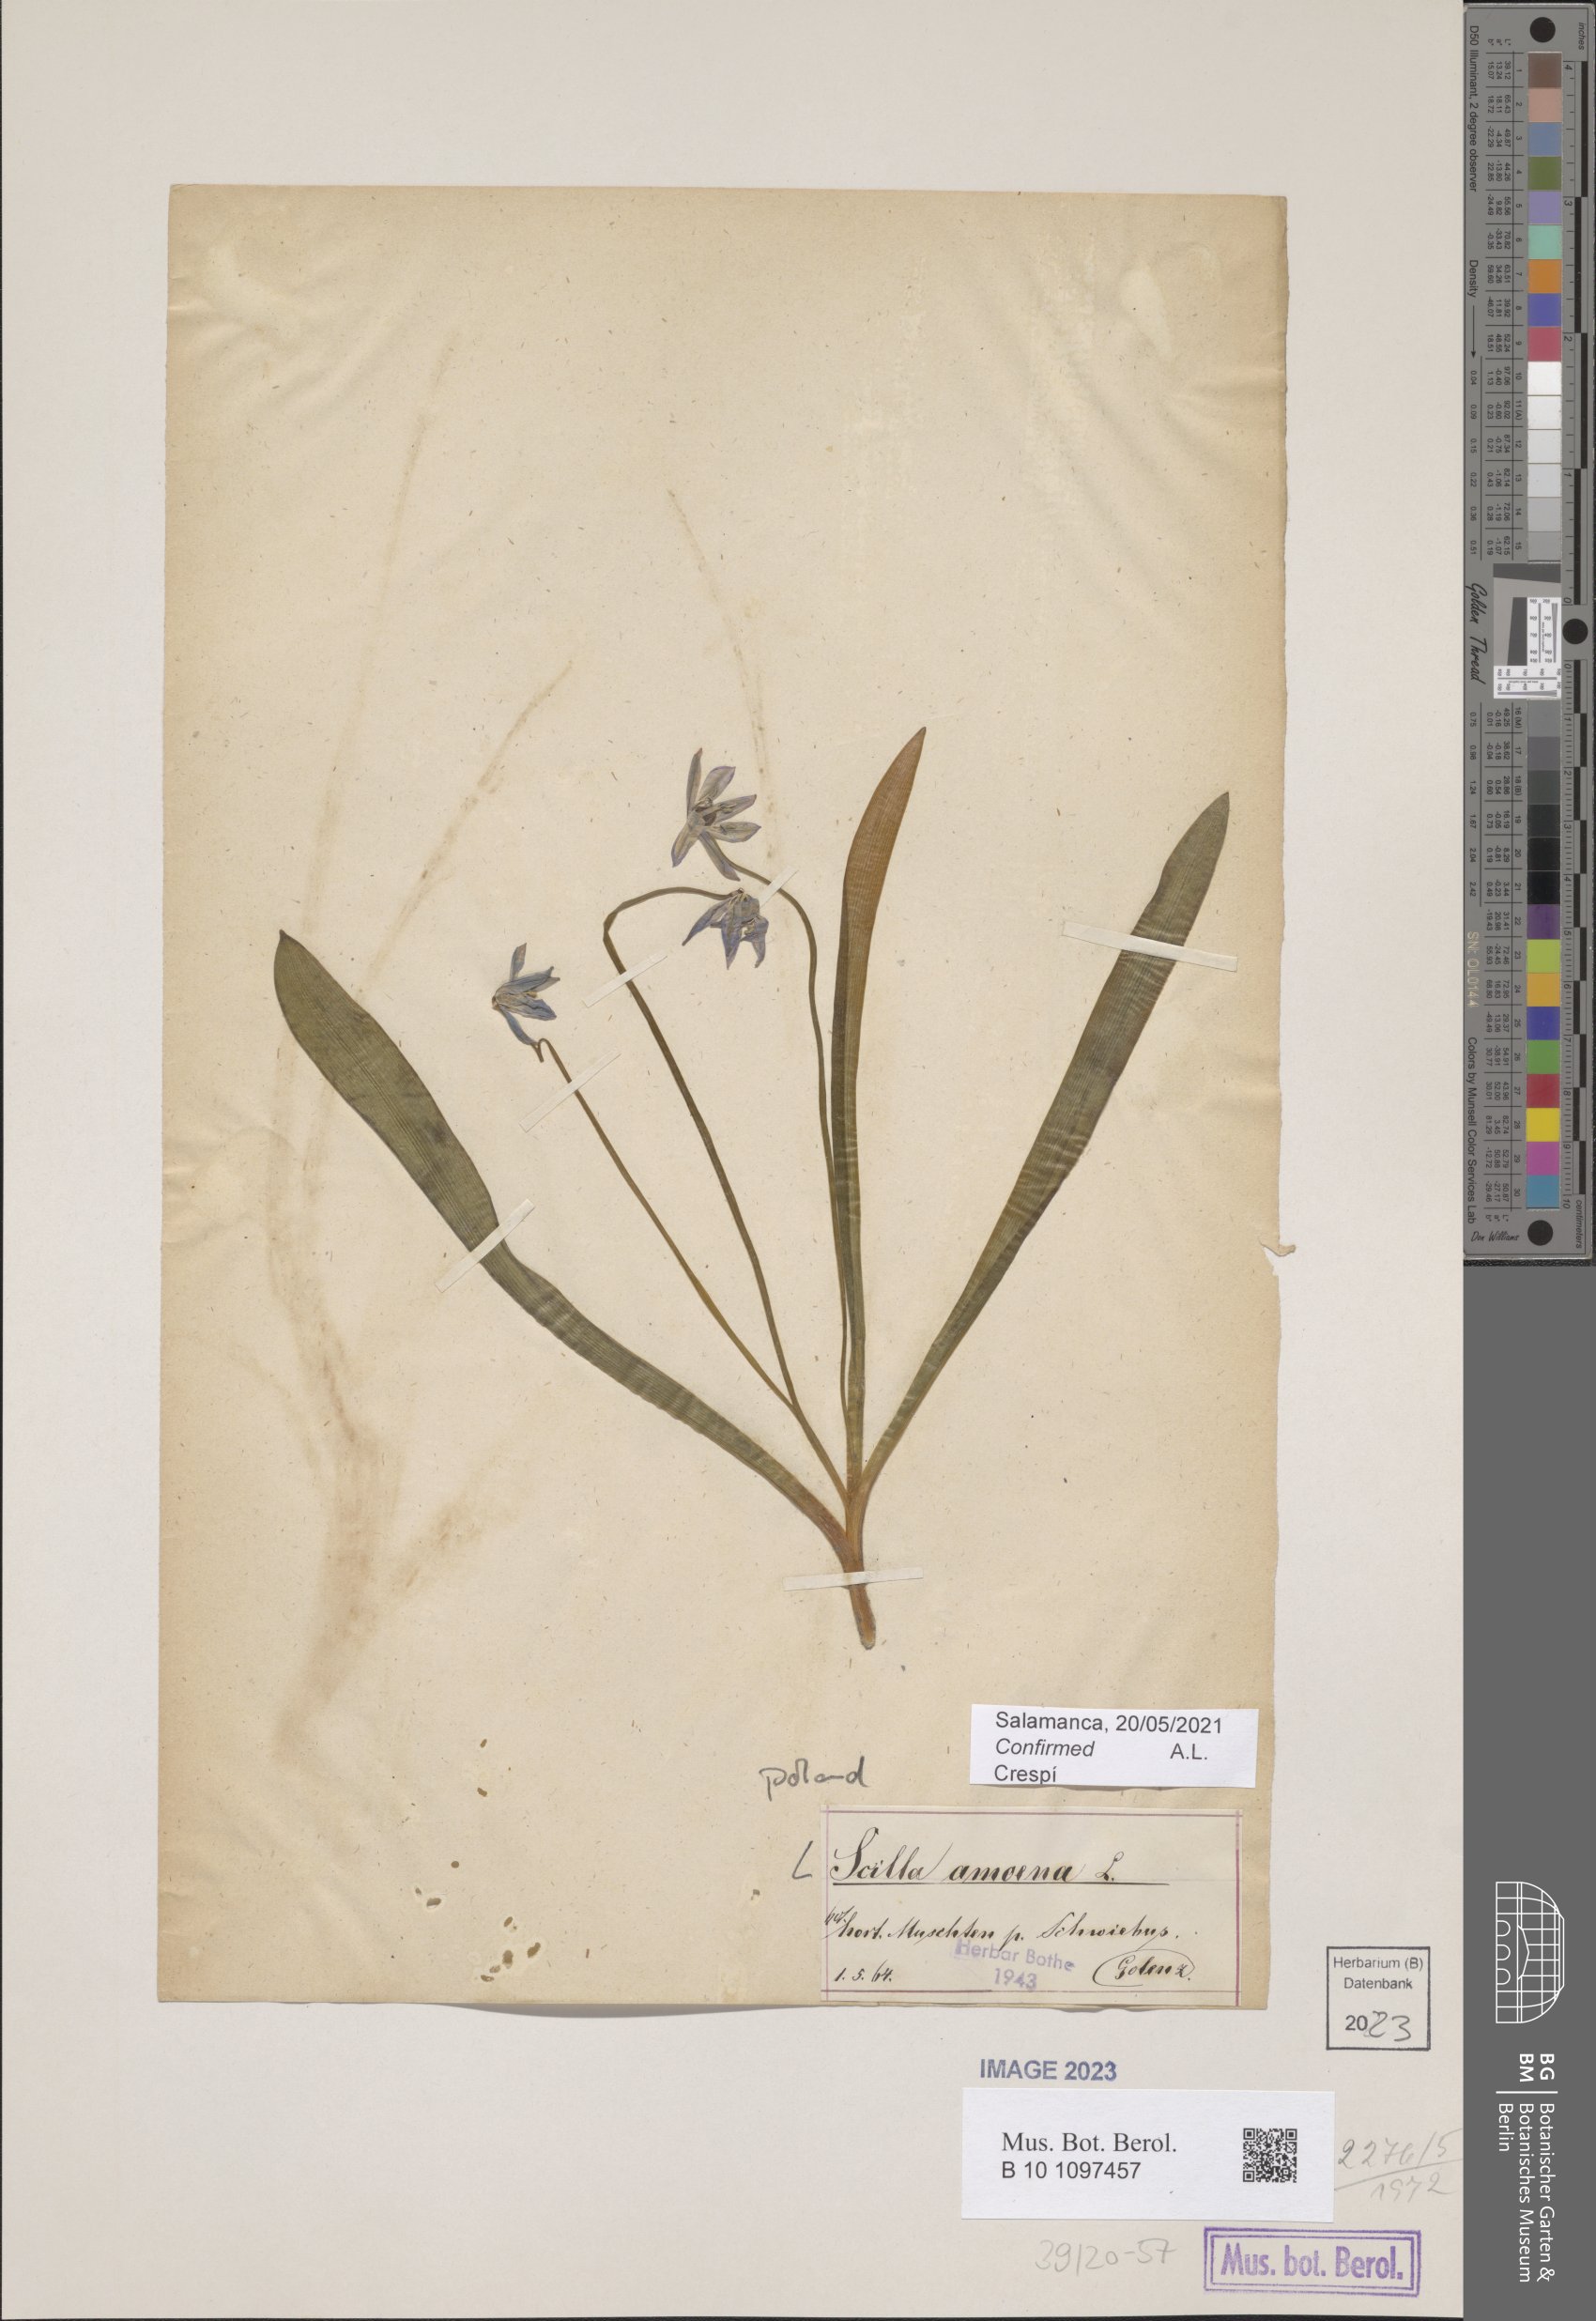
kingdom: Plantae
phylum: Tracheophyta
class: Liliopsida
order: Asparagales
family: Asparagaceae
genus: Scilla
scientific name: Scilla amoena
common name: Star-hyacinth
